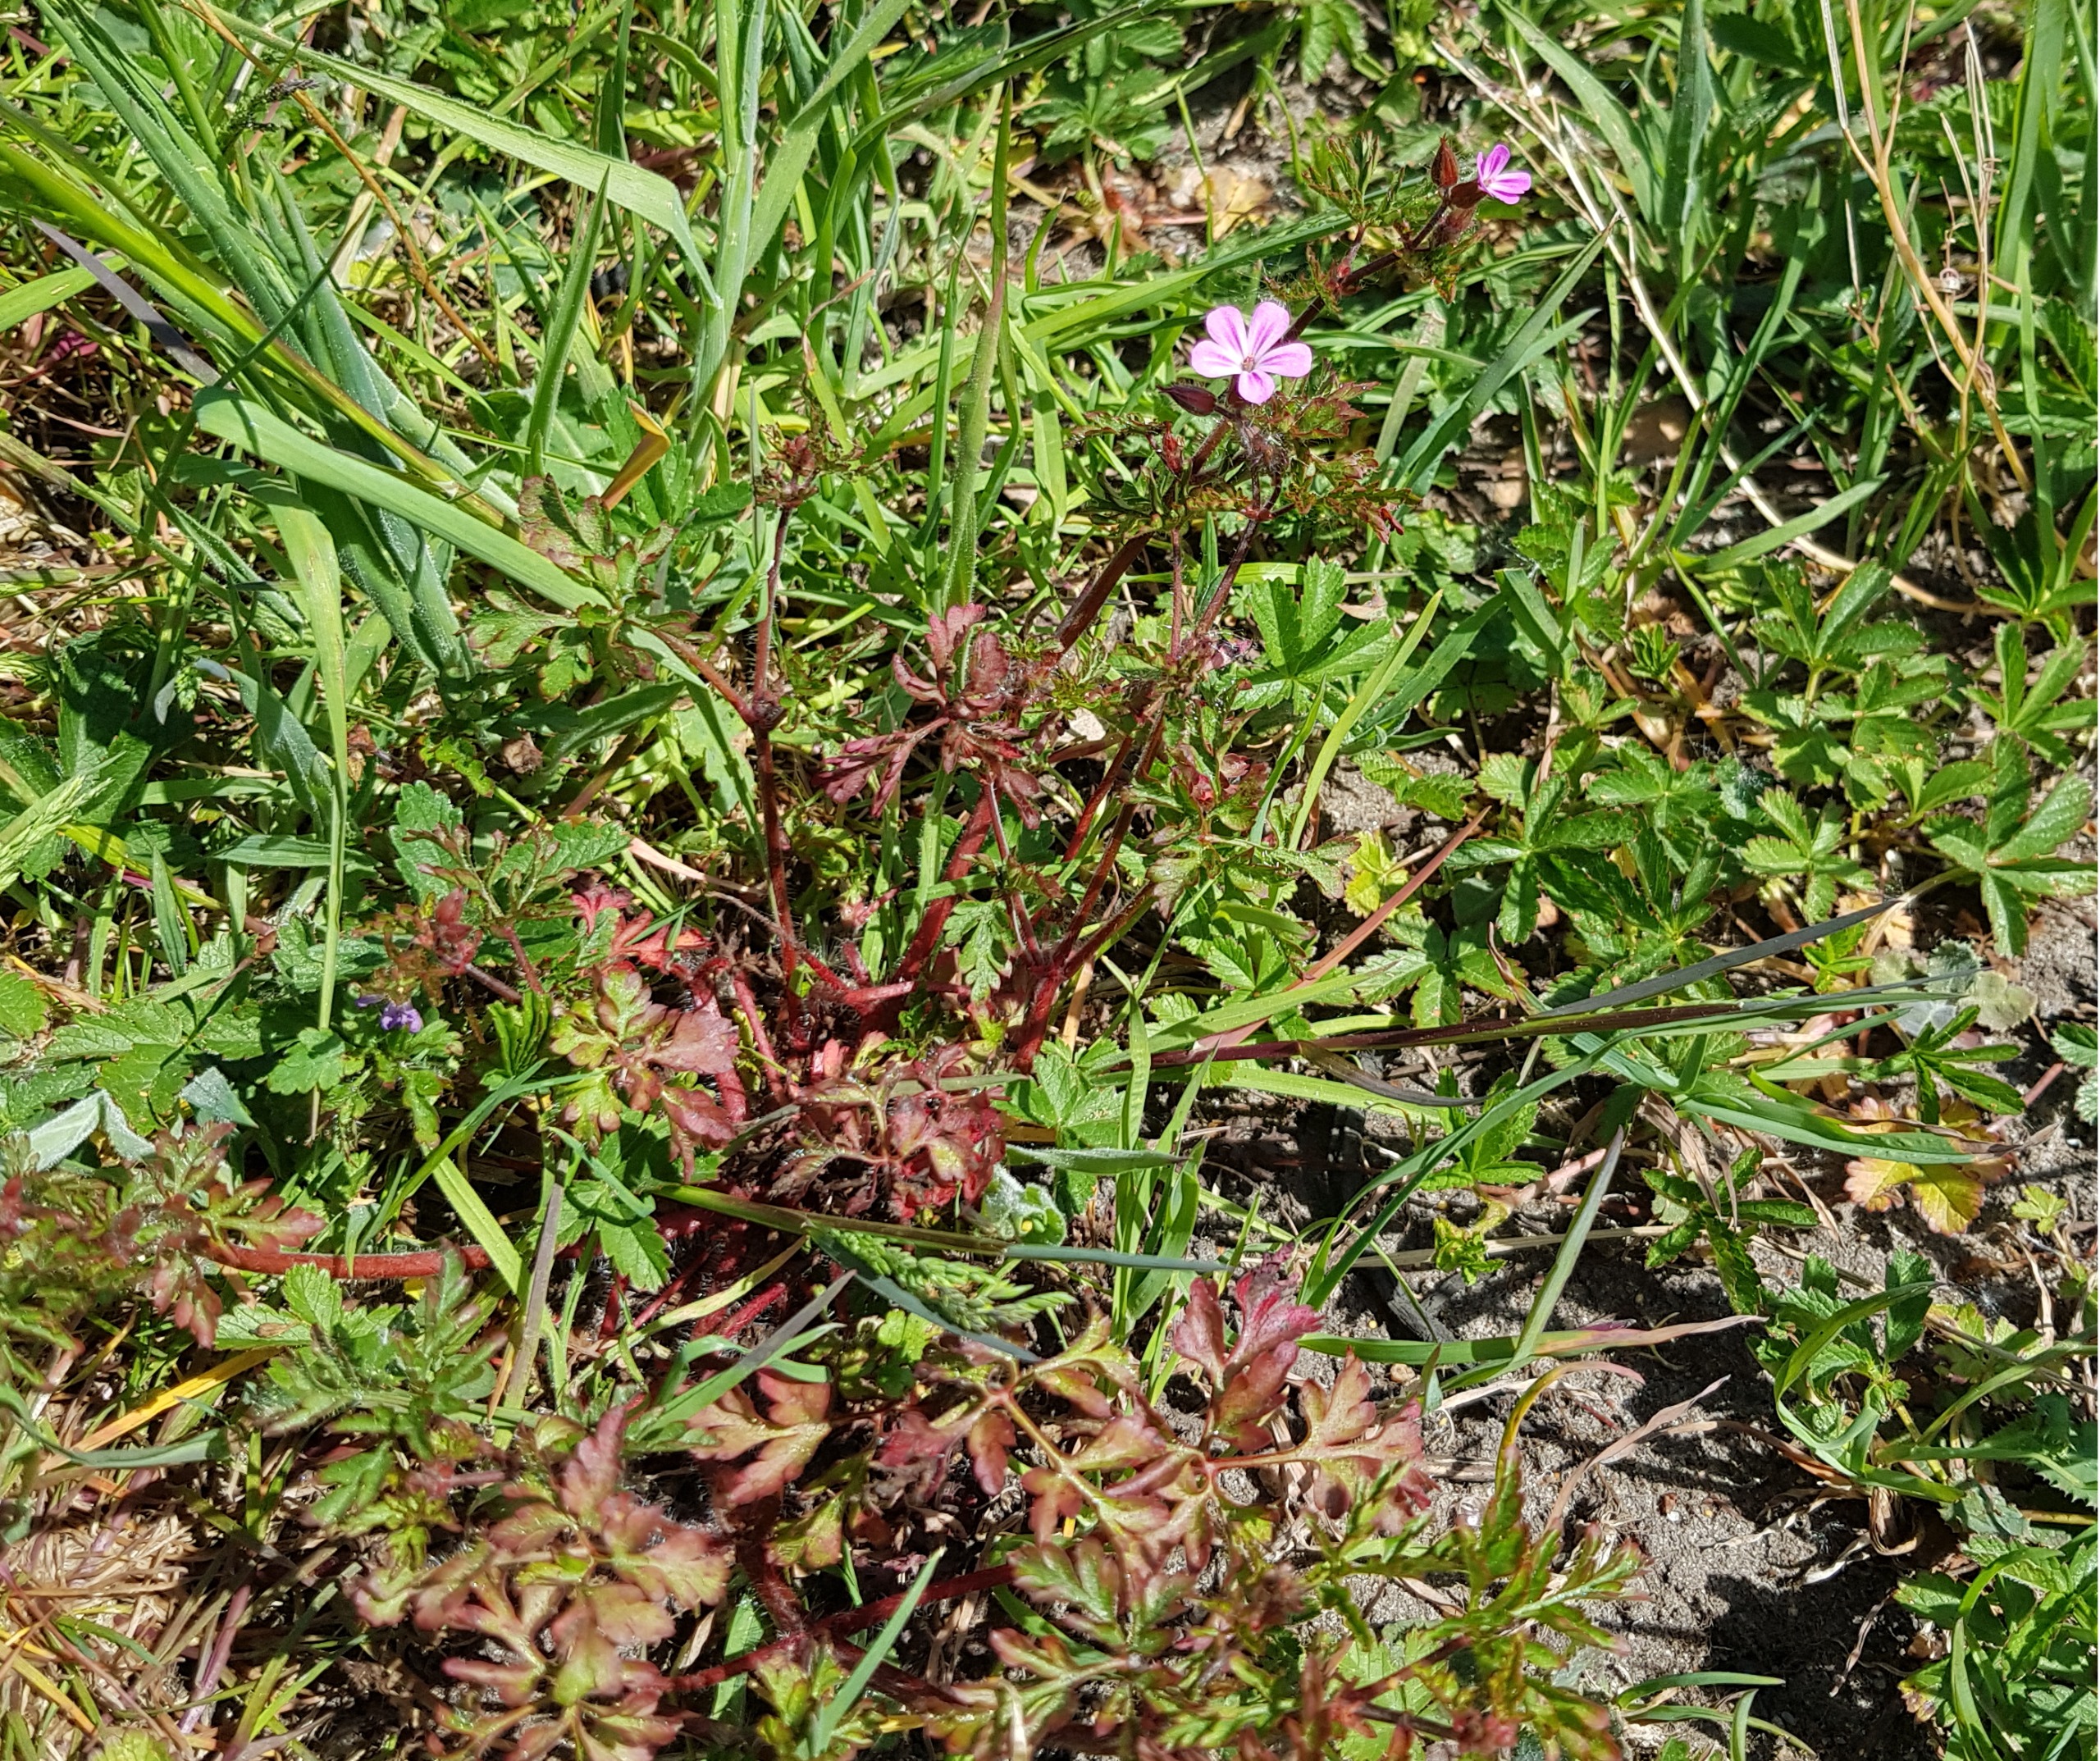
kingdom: Plantae
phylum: Tracheophyta
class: Magnoliopsida
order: Geraniales
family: Geraniaceae
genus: Geranium
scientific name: Geranium robertianum
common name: Stinkende storkenæb
